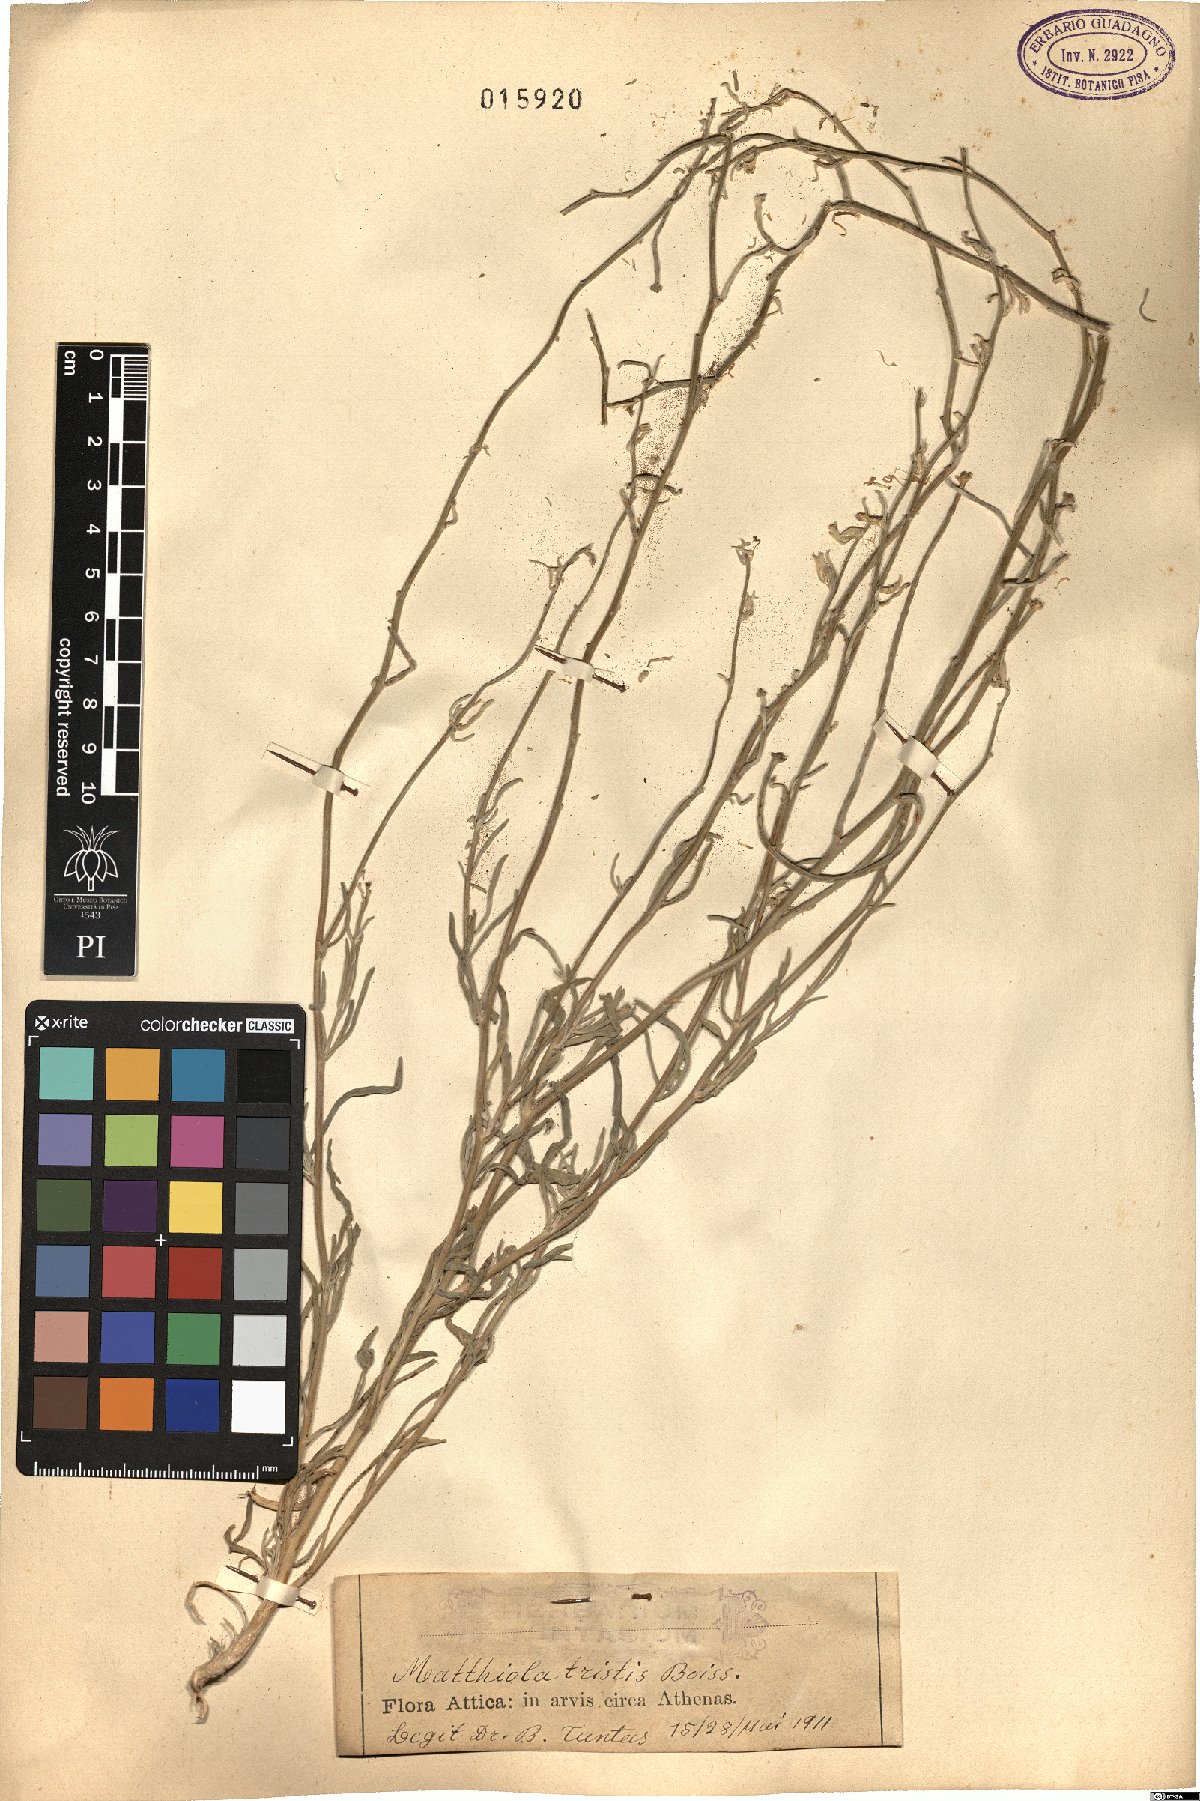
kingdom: Plantae
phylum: Tracheophyta
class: Magnoliopsida
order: Brassicales
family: Brassicaceae
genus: Matthiola
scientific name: Matthiola fruticulosa
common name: Sad stock
